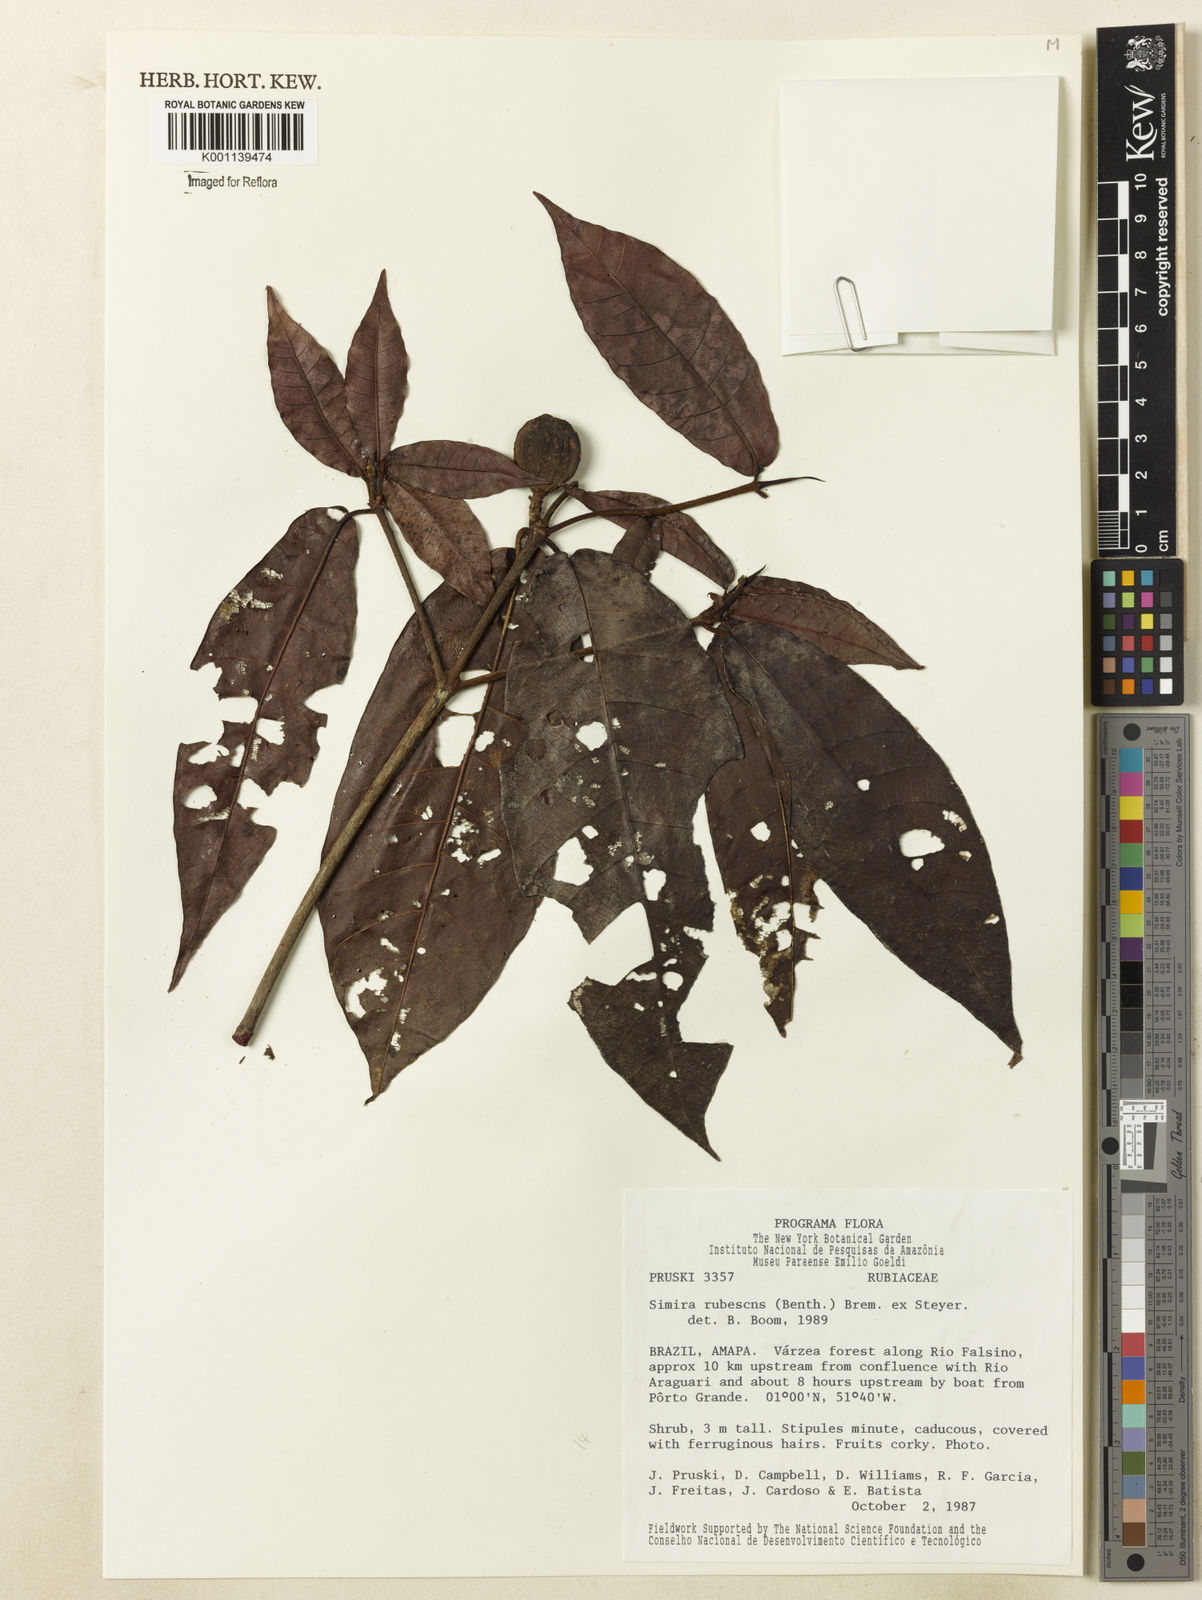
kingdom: Plantae
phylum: Tracheophyta
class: Magnoliopsida
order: Gentianales
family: Rubiaceae
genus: Simira
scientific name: Simira rubescens
